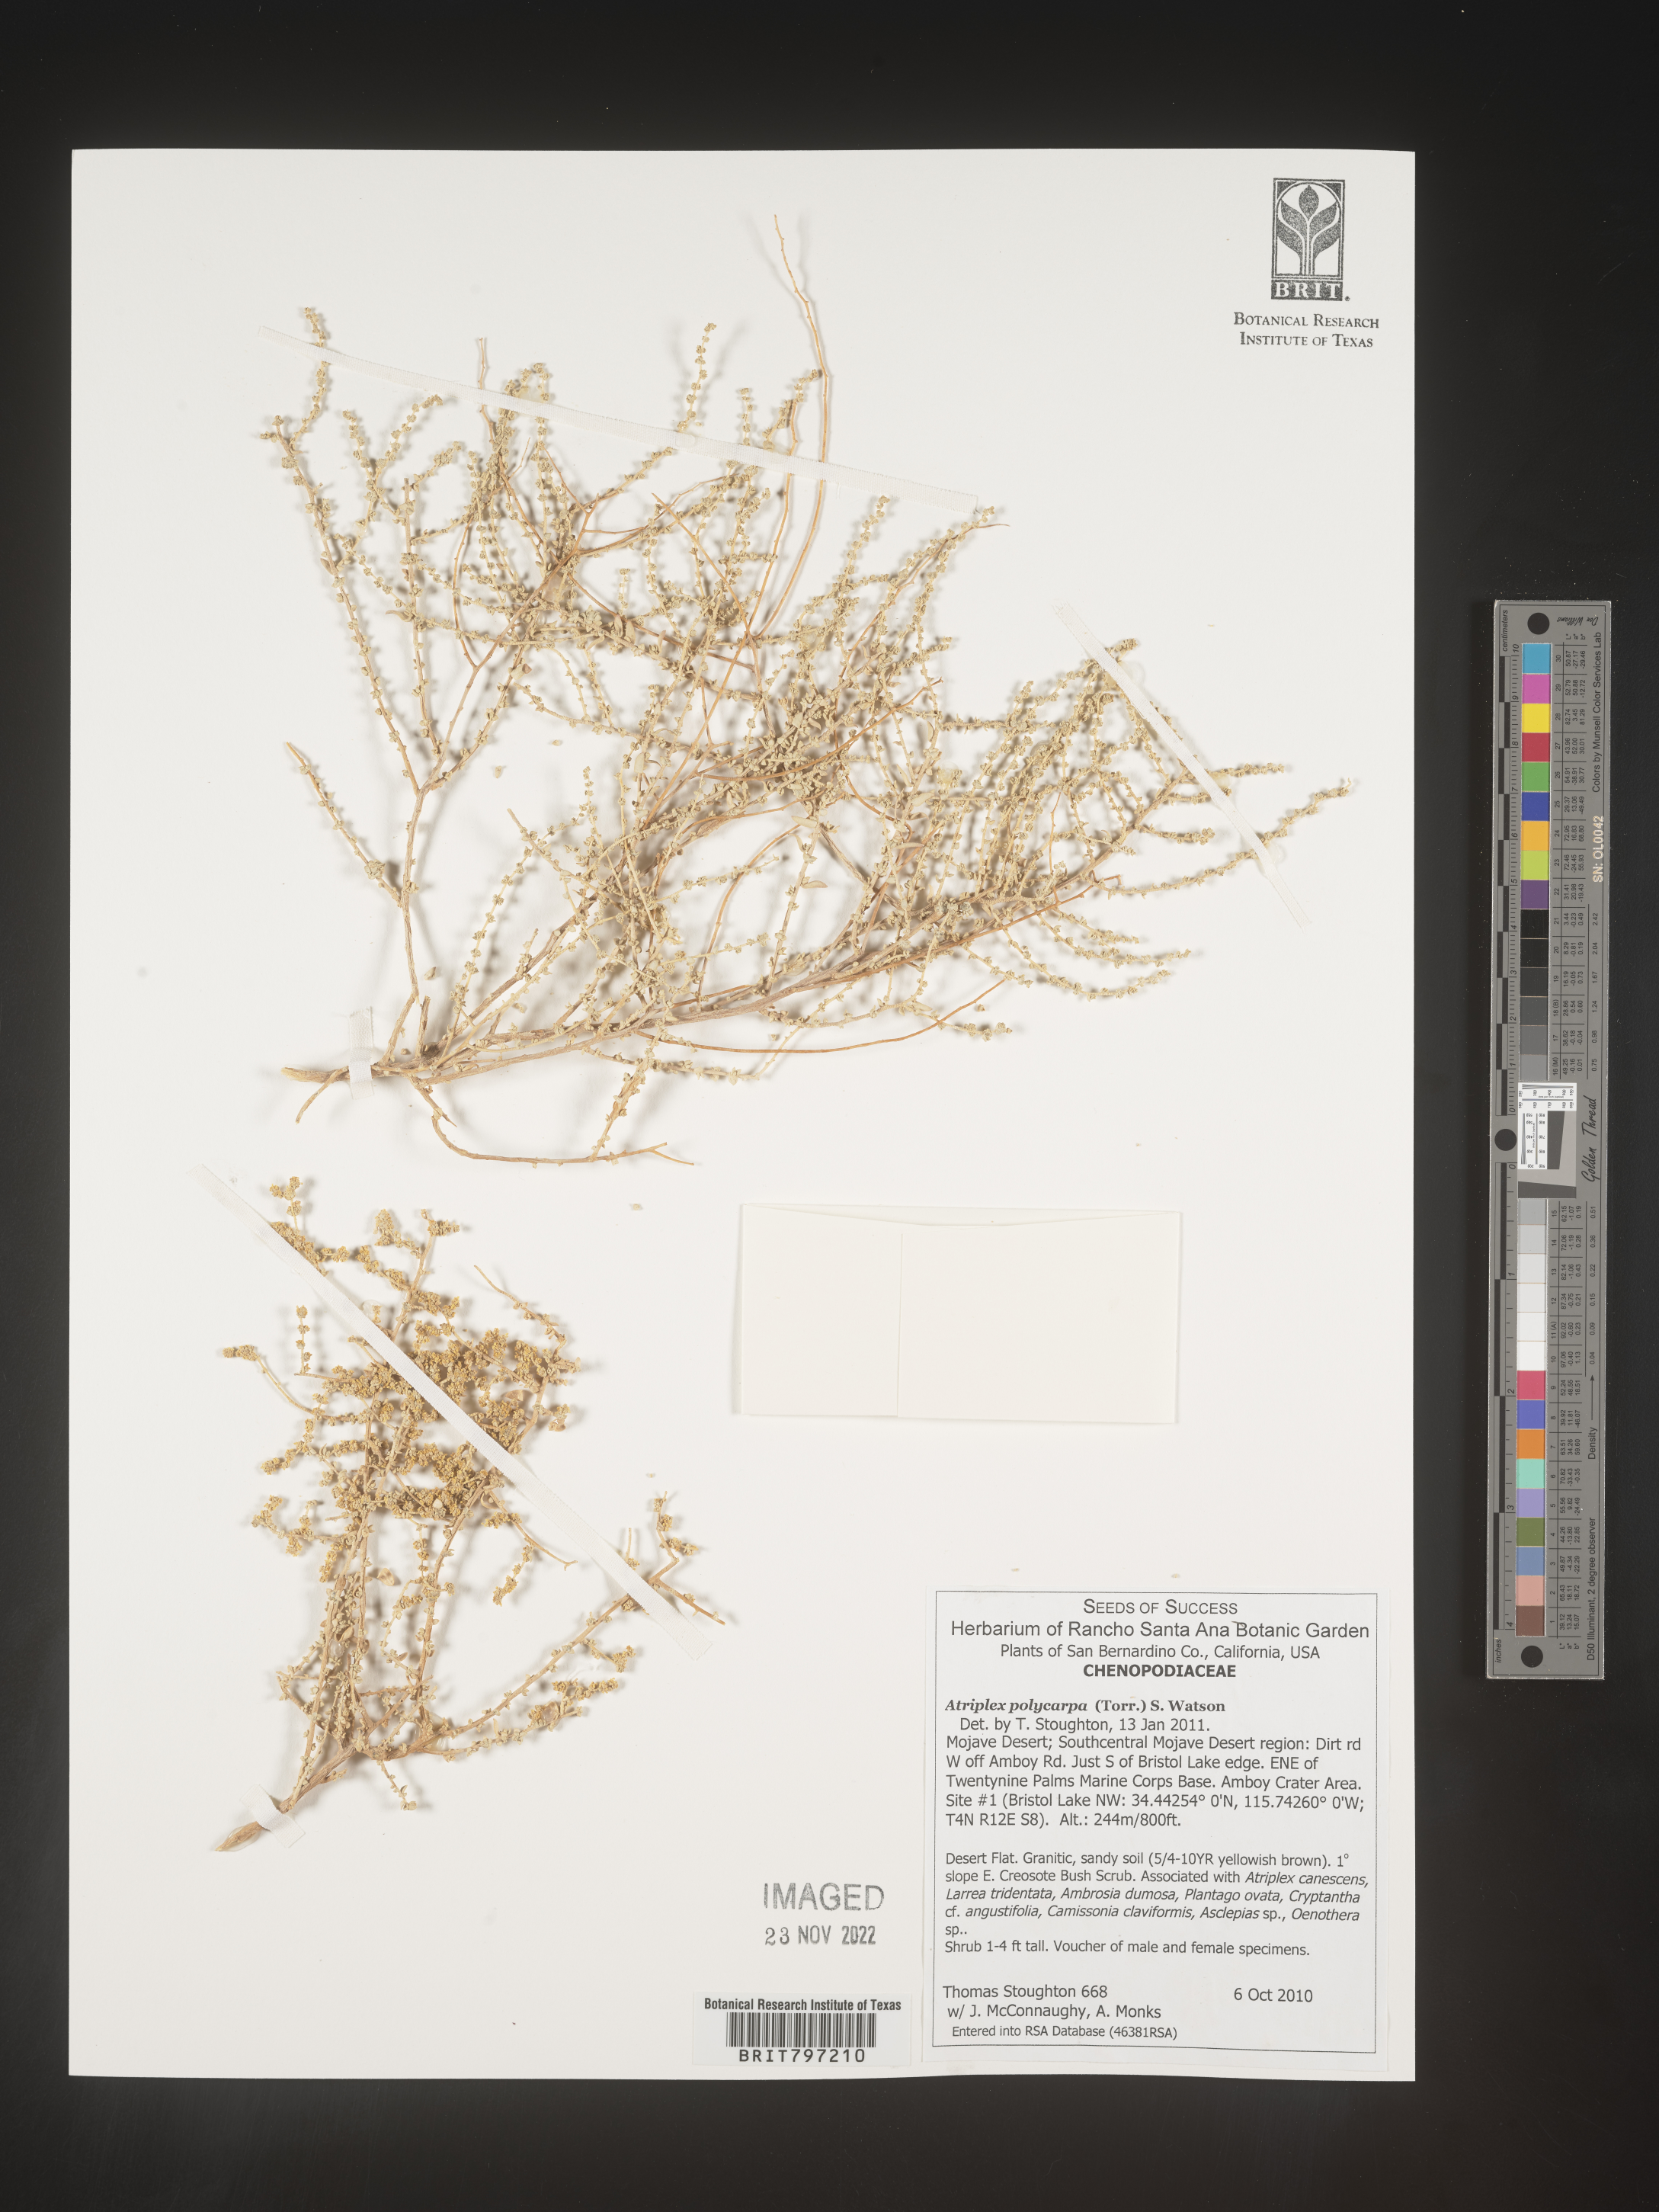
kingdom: Plantae
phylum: Tracheophyta
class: Magnoliopsida
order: Caryophyllales
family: Amaranthaceae
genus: Atriplex
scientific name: Atriplex polycarpa
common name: Desert saltbush
